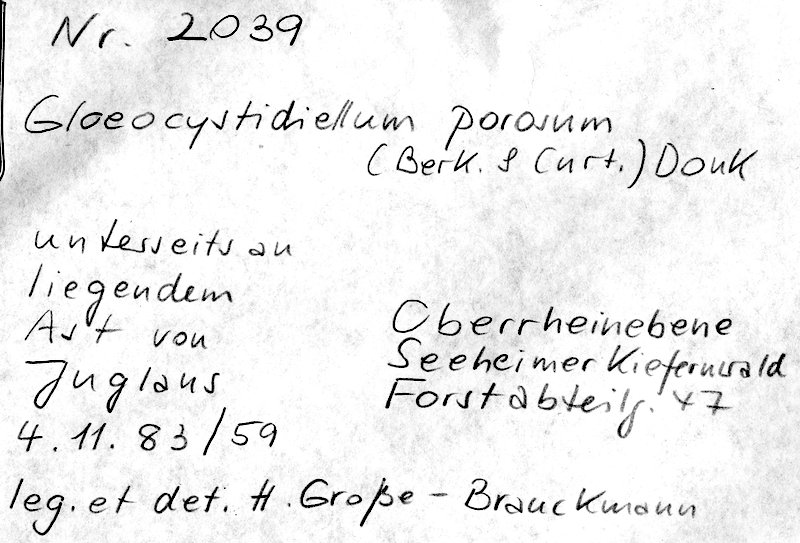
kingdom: Fungi
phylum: Basidiomycota
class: Agaricomycetes
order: Russulales
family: Stereaceae
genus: Gloeocystidiellum
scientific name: Gloeocystidiellum porosum
